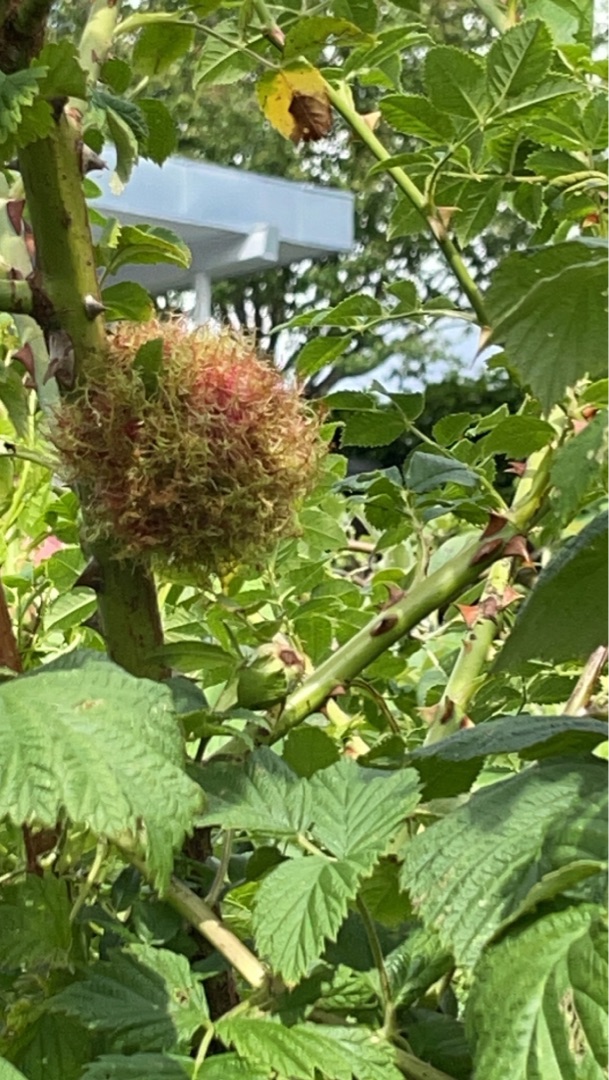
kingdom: Animalia
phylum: Arthropoda
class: Insecta
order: Hymenoptera
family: Cynipidae
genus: Diplolepis
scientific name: Diplolepis rosae
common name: Bedeguargalhveps
